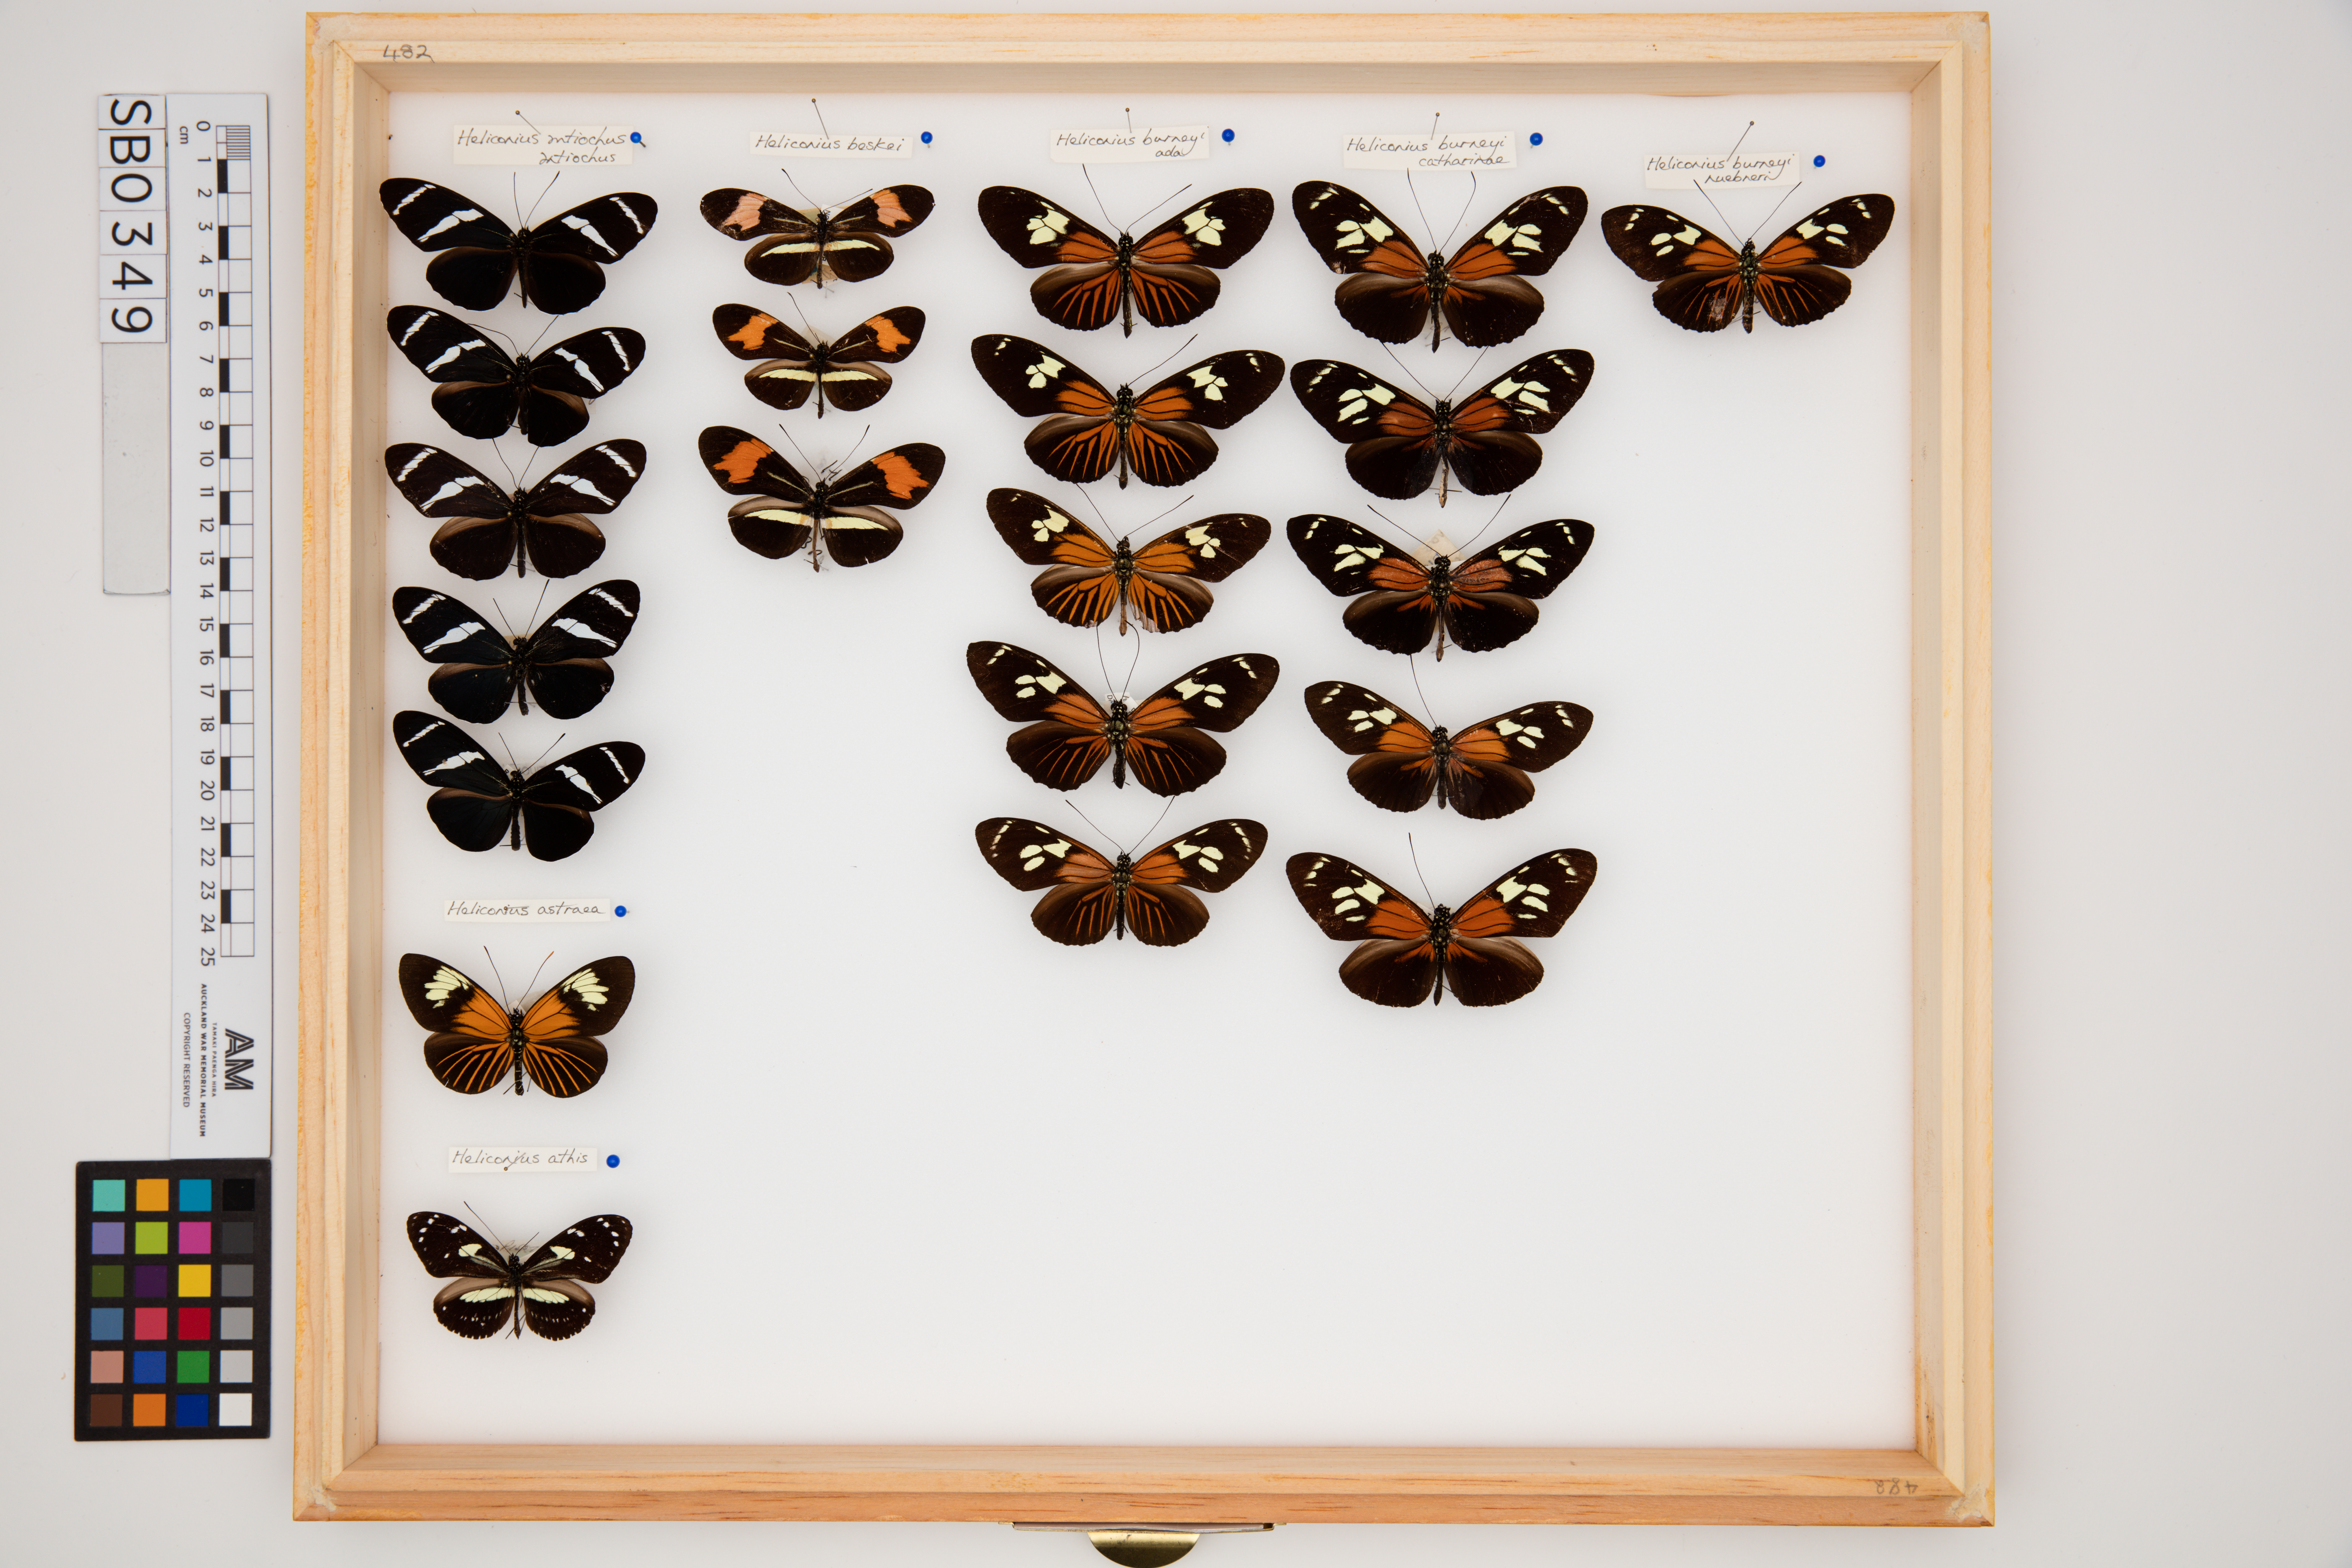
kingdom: Animalia
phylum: Arthropoda
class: Insecta
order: Lepidoptera
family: Nymphalidae
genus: Heliconius
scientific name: Heliconius burneyi
